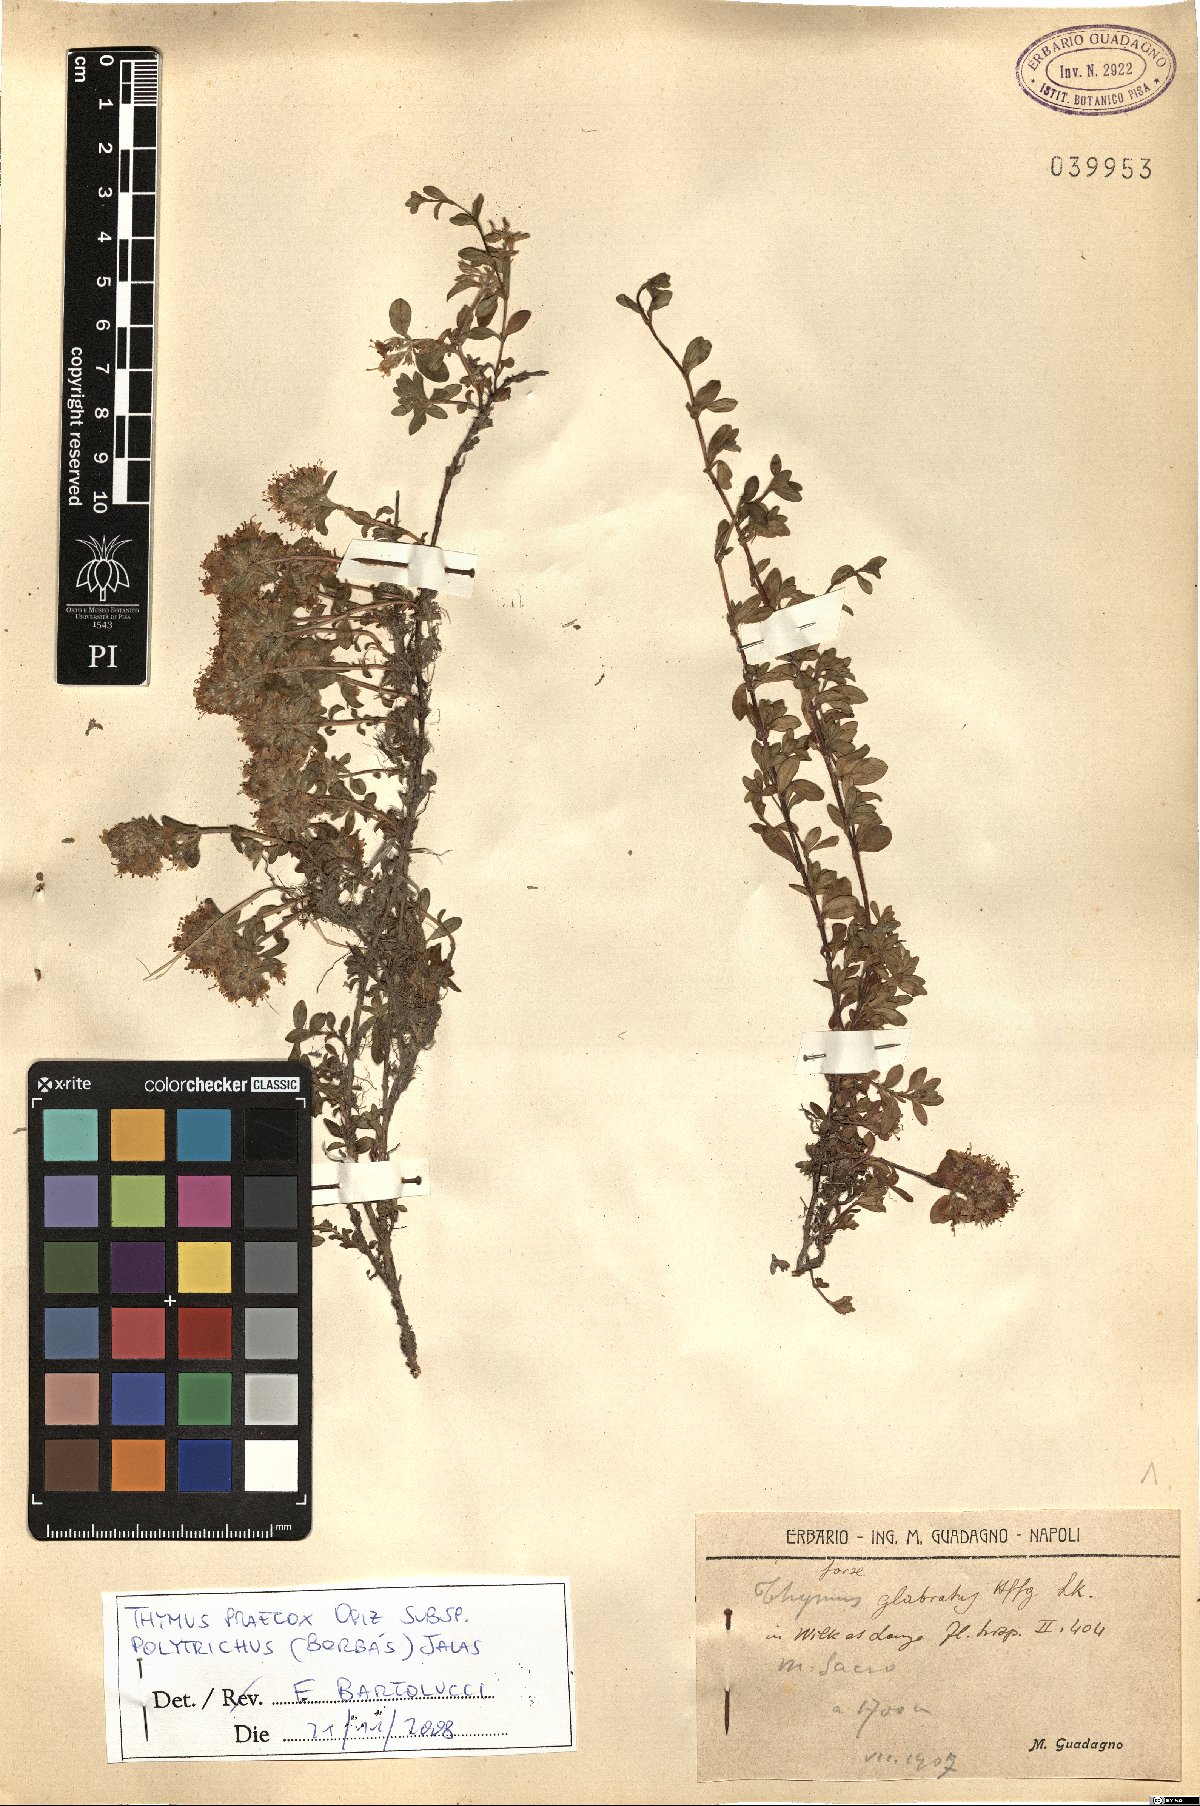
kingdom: Plantae
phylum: Tracheophyta
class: Magnoliopsida
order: Lamiales
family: Lamiaceae
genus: Thymus
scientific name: Thymus praecox
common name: Wild thyme
